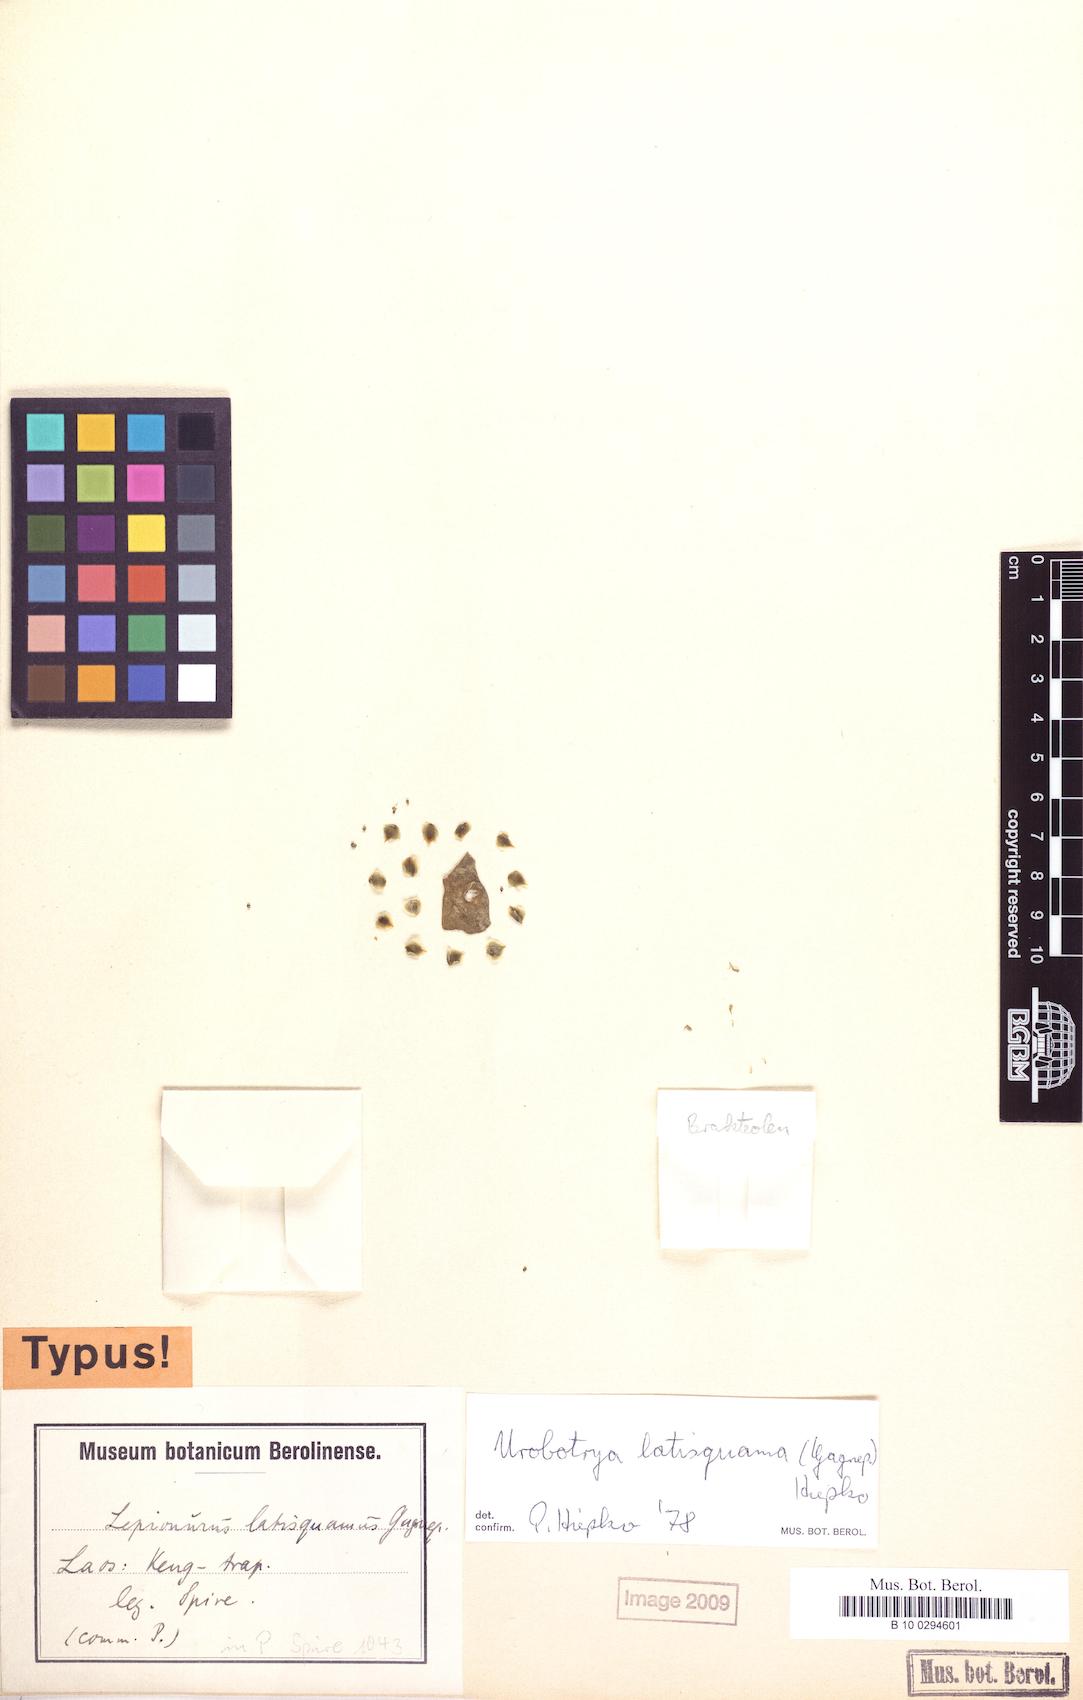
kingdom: Plantae
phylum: Tracheophyta
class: Magnoliopsida
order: Santalales
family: Opiliaceae
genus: Urobotrya
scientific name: Urobotrya latisquama
